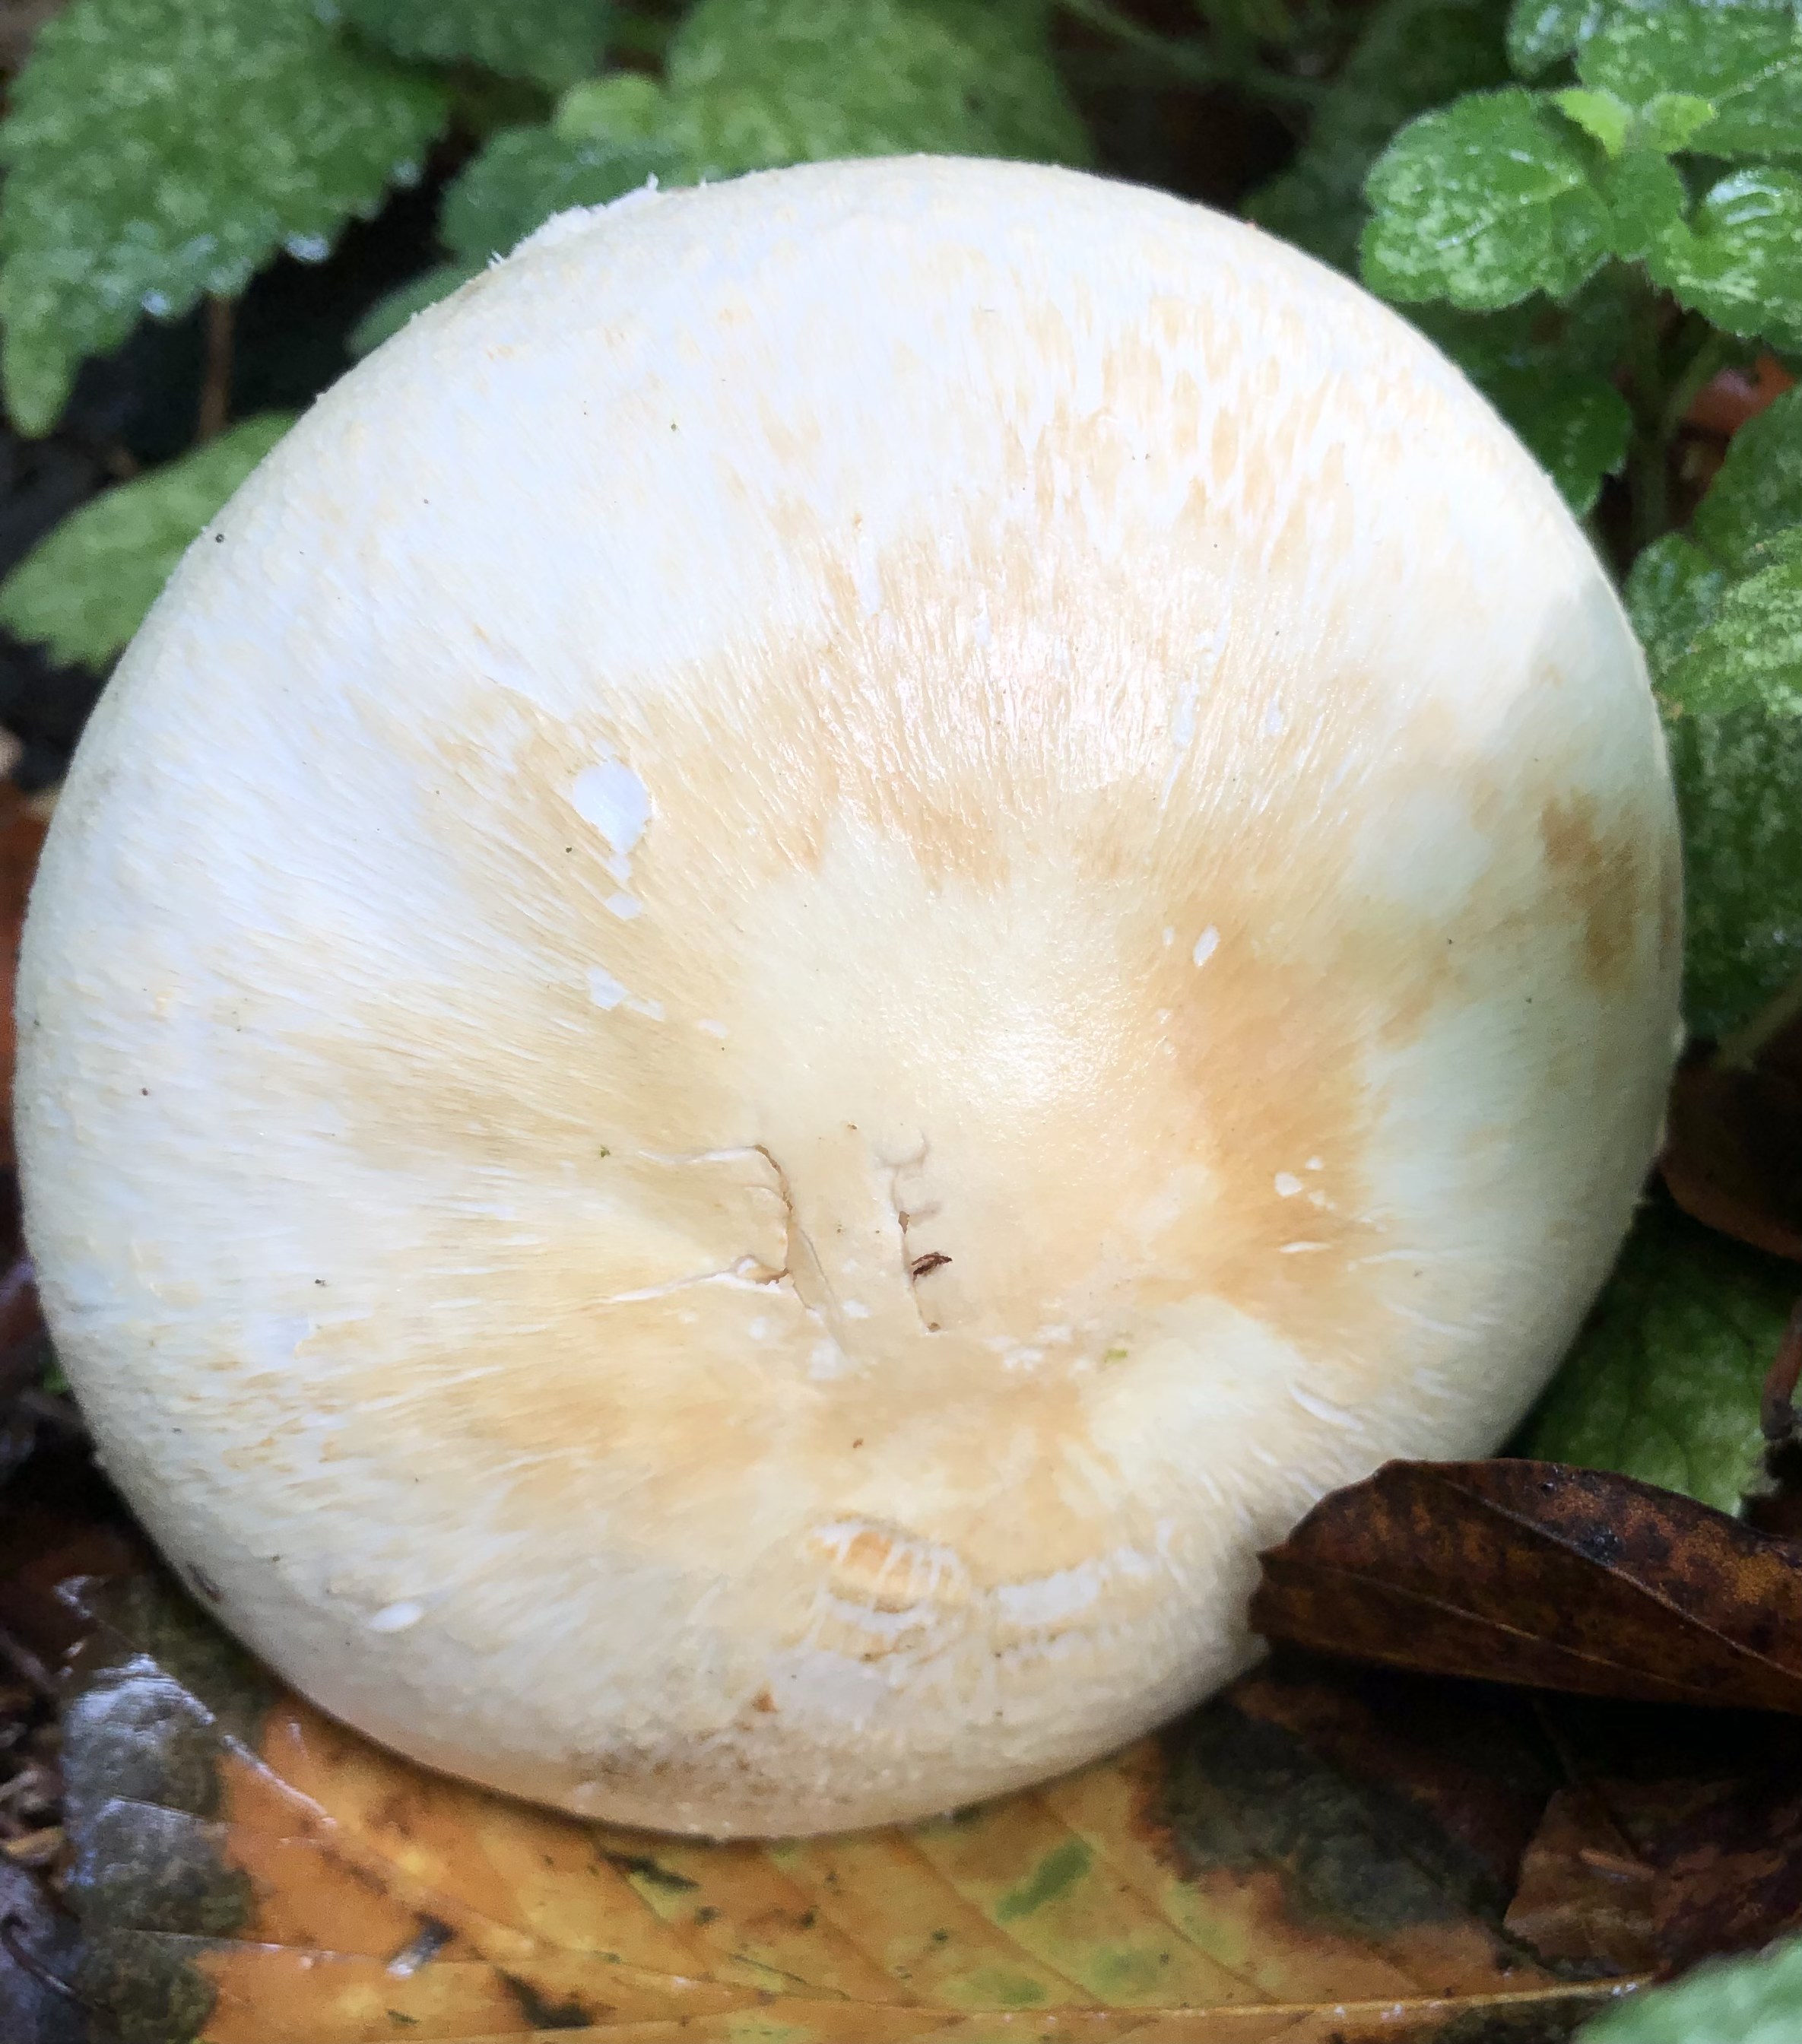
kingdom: Fungi
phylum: Basidiomycota
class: Agaricomycetes
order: Agaricales
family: Agaricaceae
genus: Agaricus
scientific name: Agaricus
